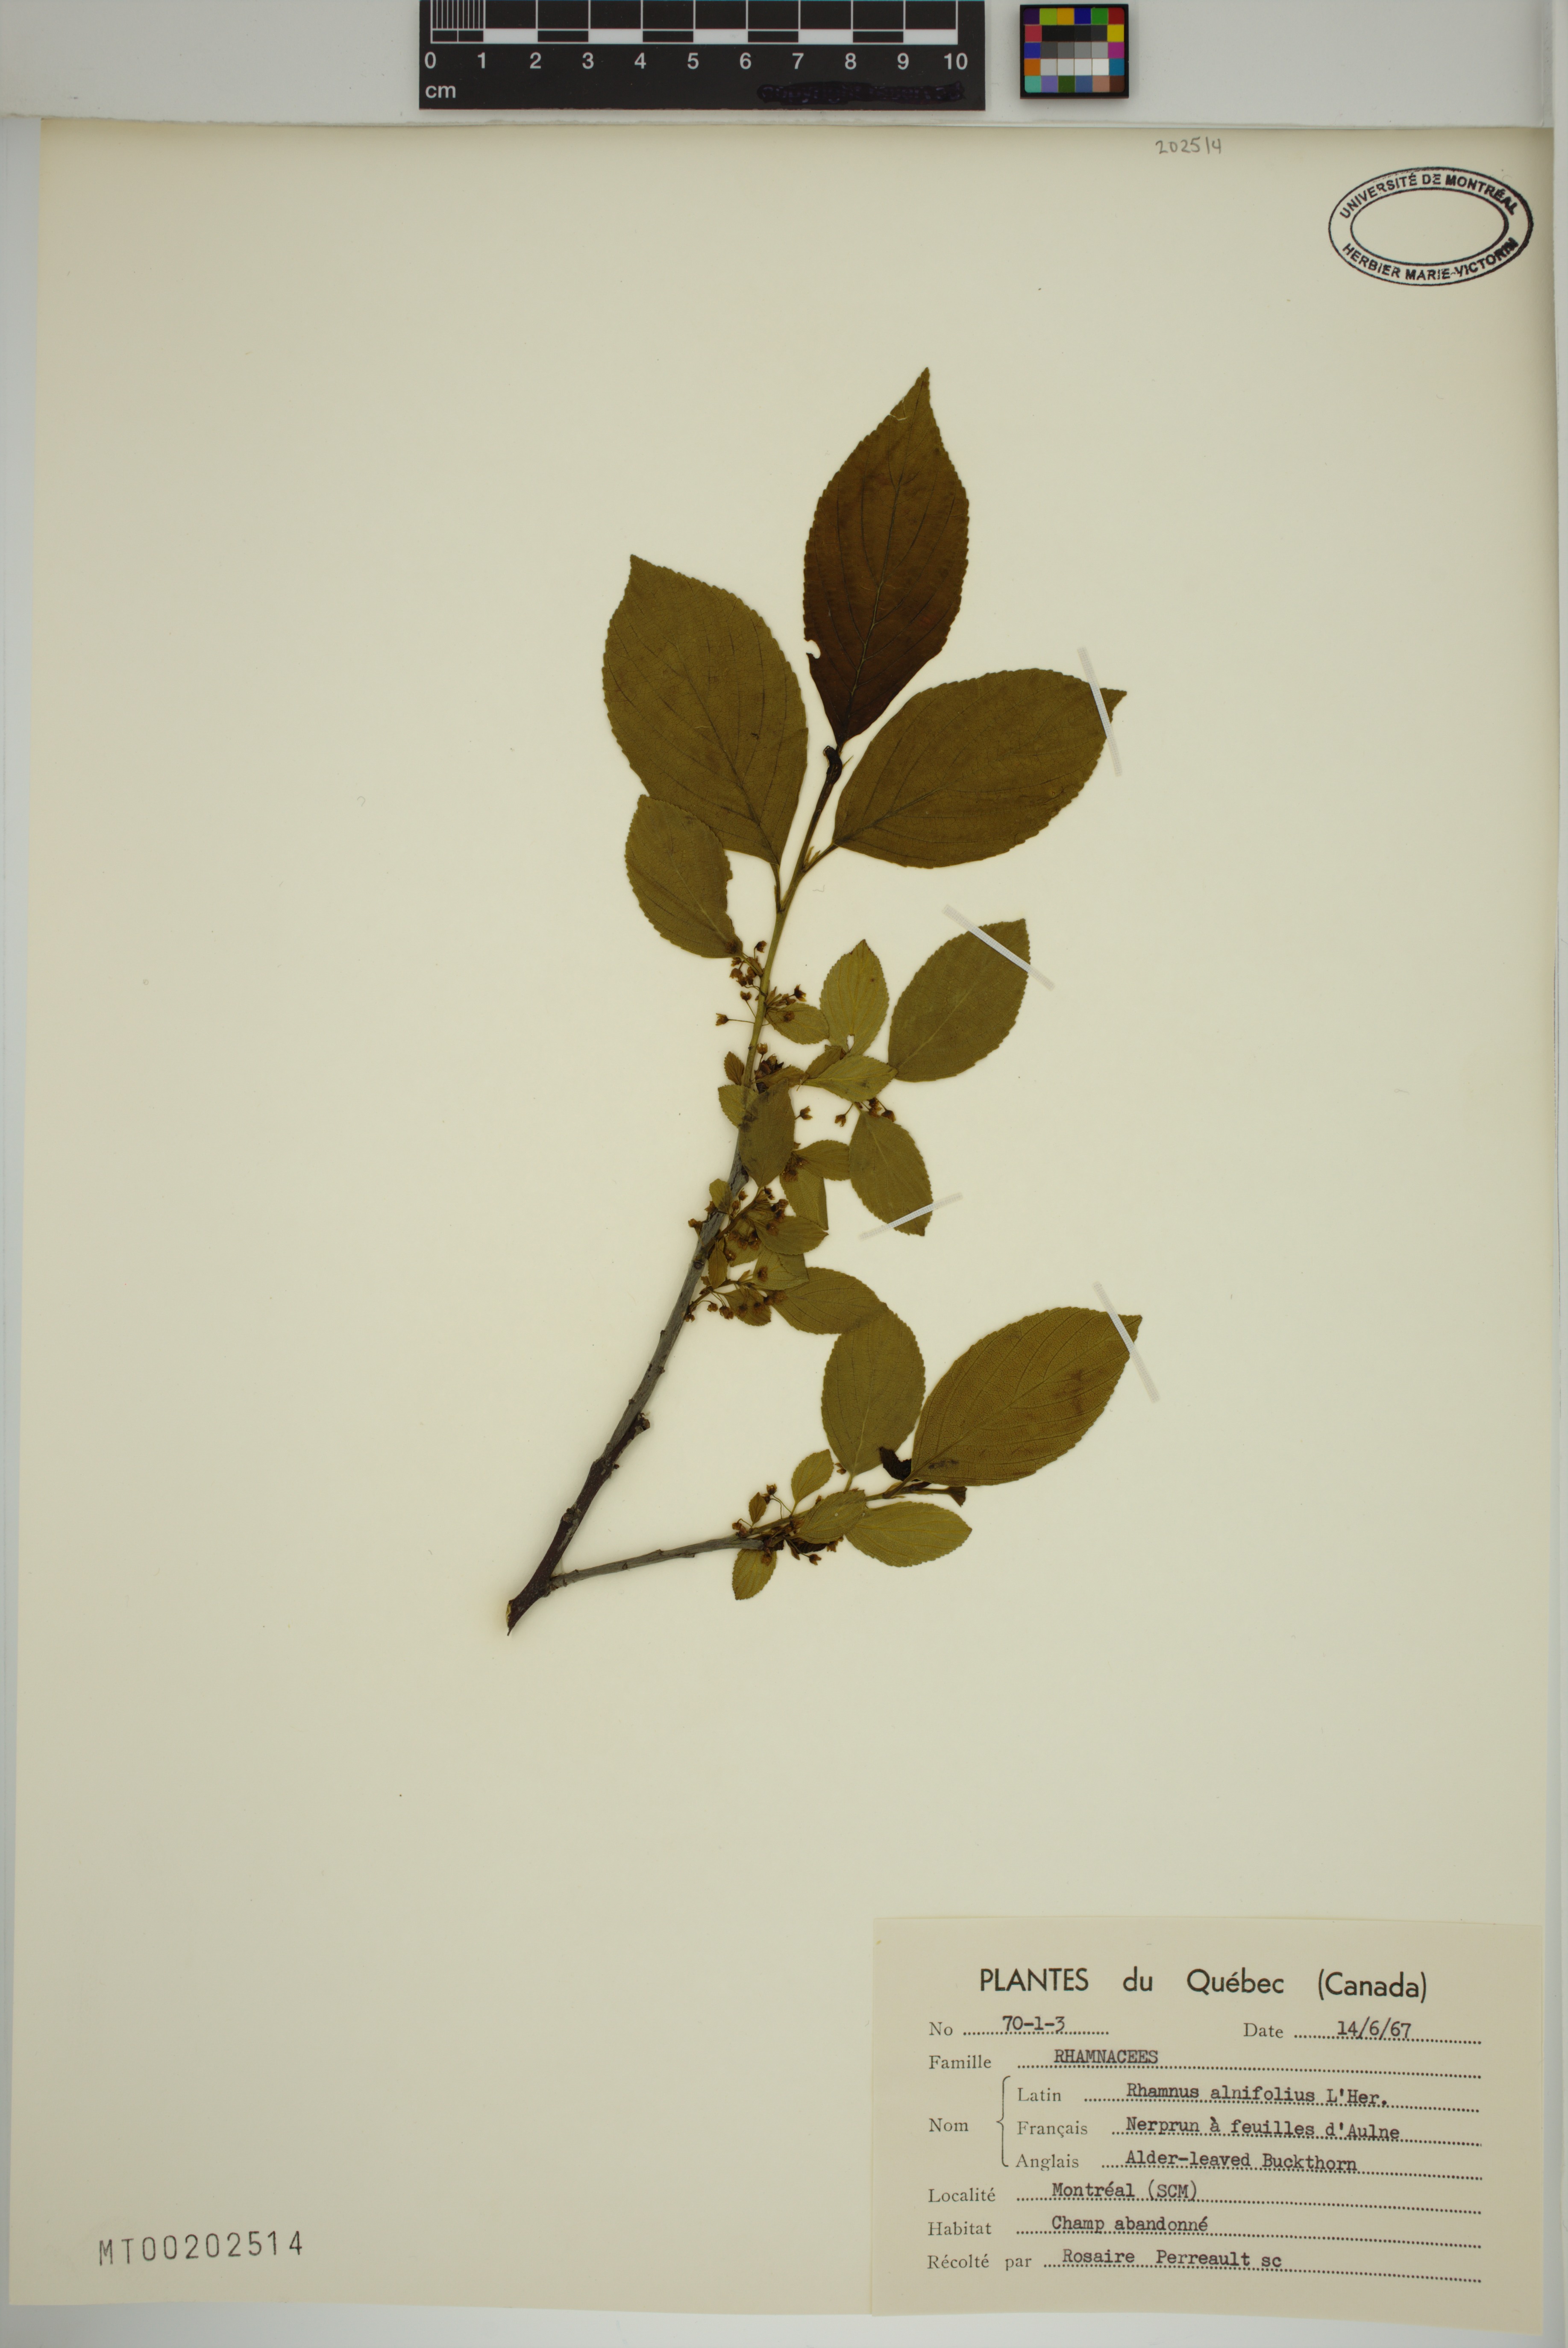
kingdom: Plantae
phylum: Tracheophyta
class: Magnoliopsida
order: Rosales
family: Rhamnaceae
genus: Endotropis
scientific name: Endotropis alnifolia
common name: American alder-buckthorn
